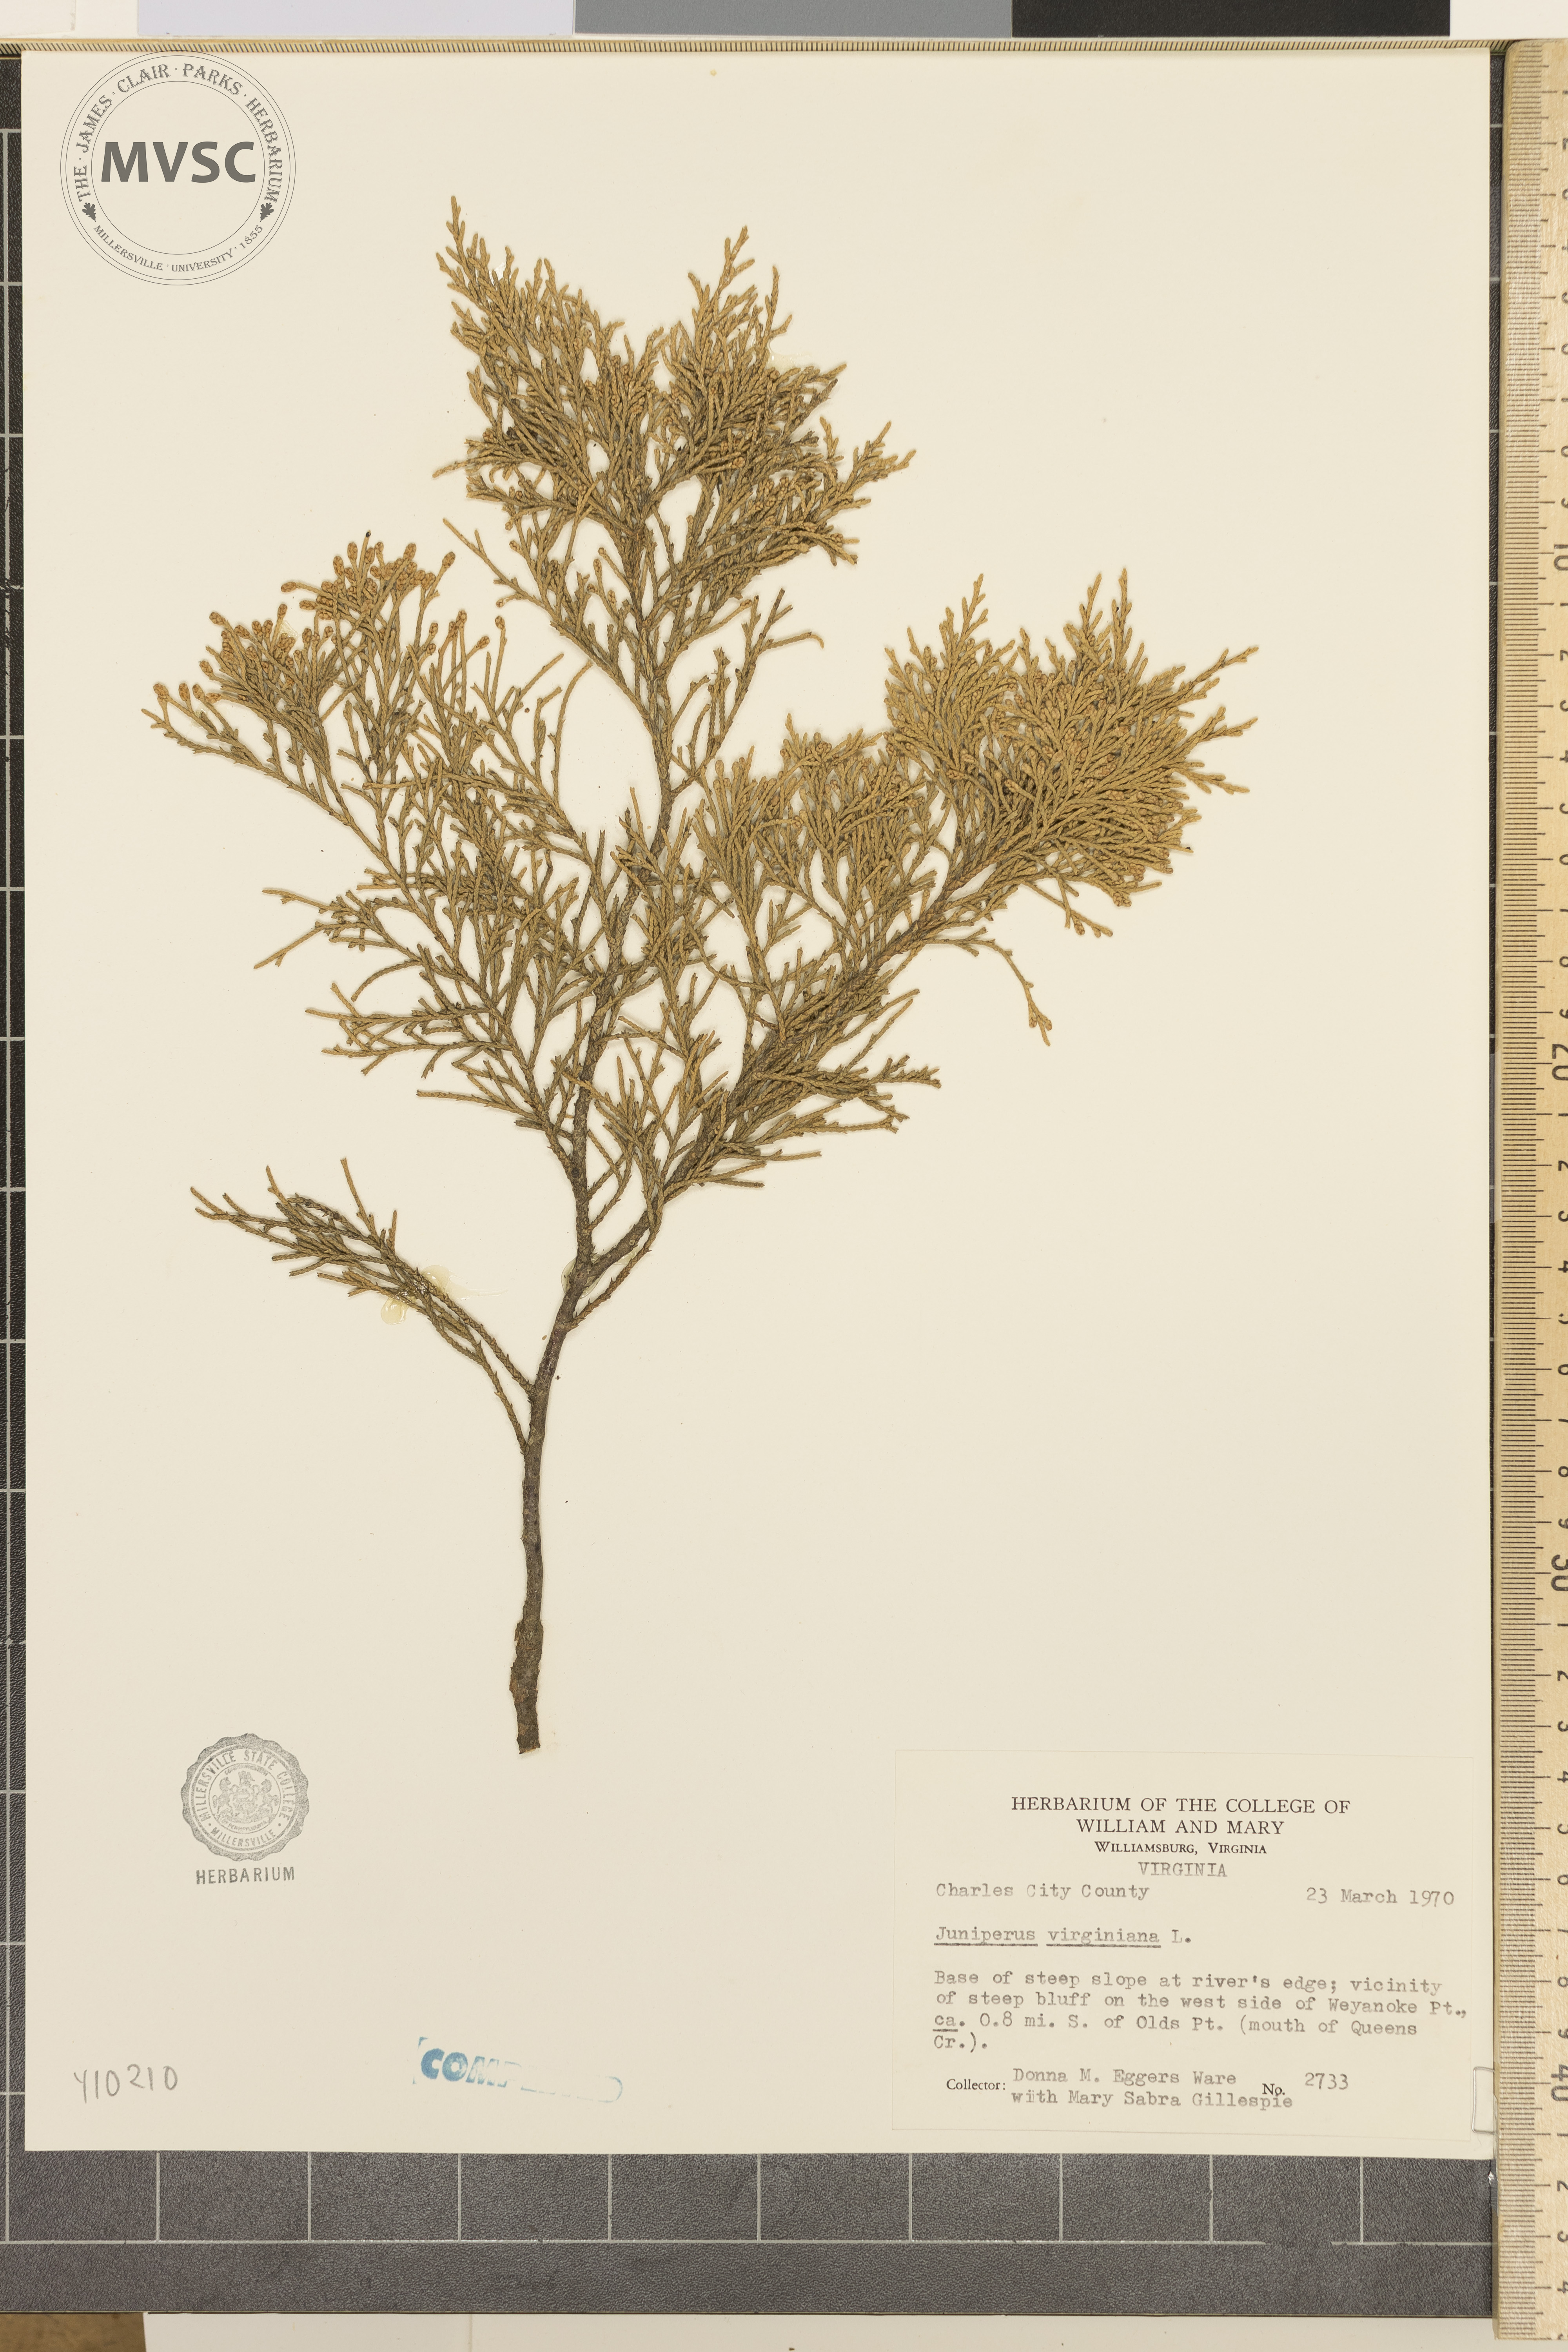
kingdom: Plantae
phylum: Tracheophyta
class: Pinopsida
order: Pinales
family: Cupressaceae
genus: Juniperus
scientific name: Juniperus virginiana
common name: Red juniper
